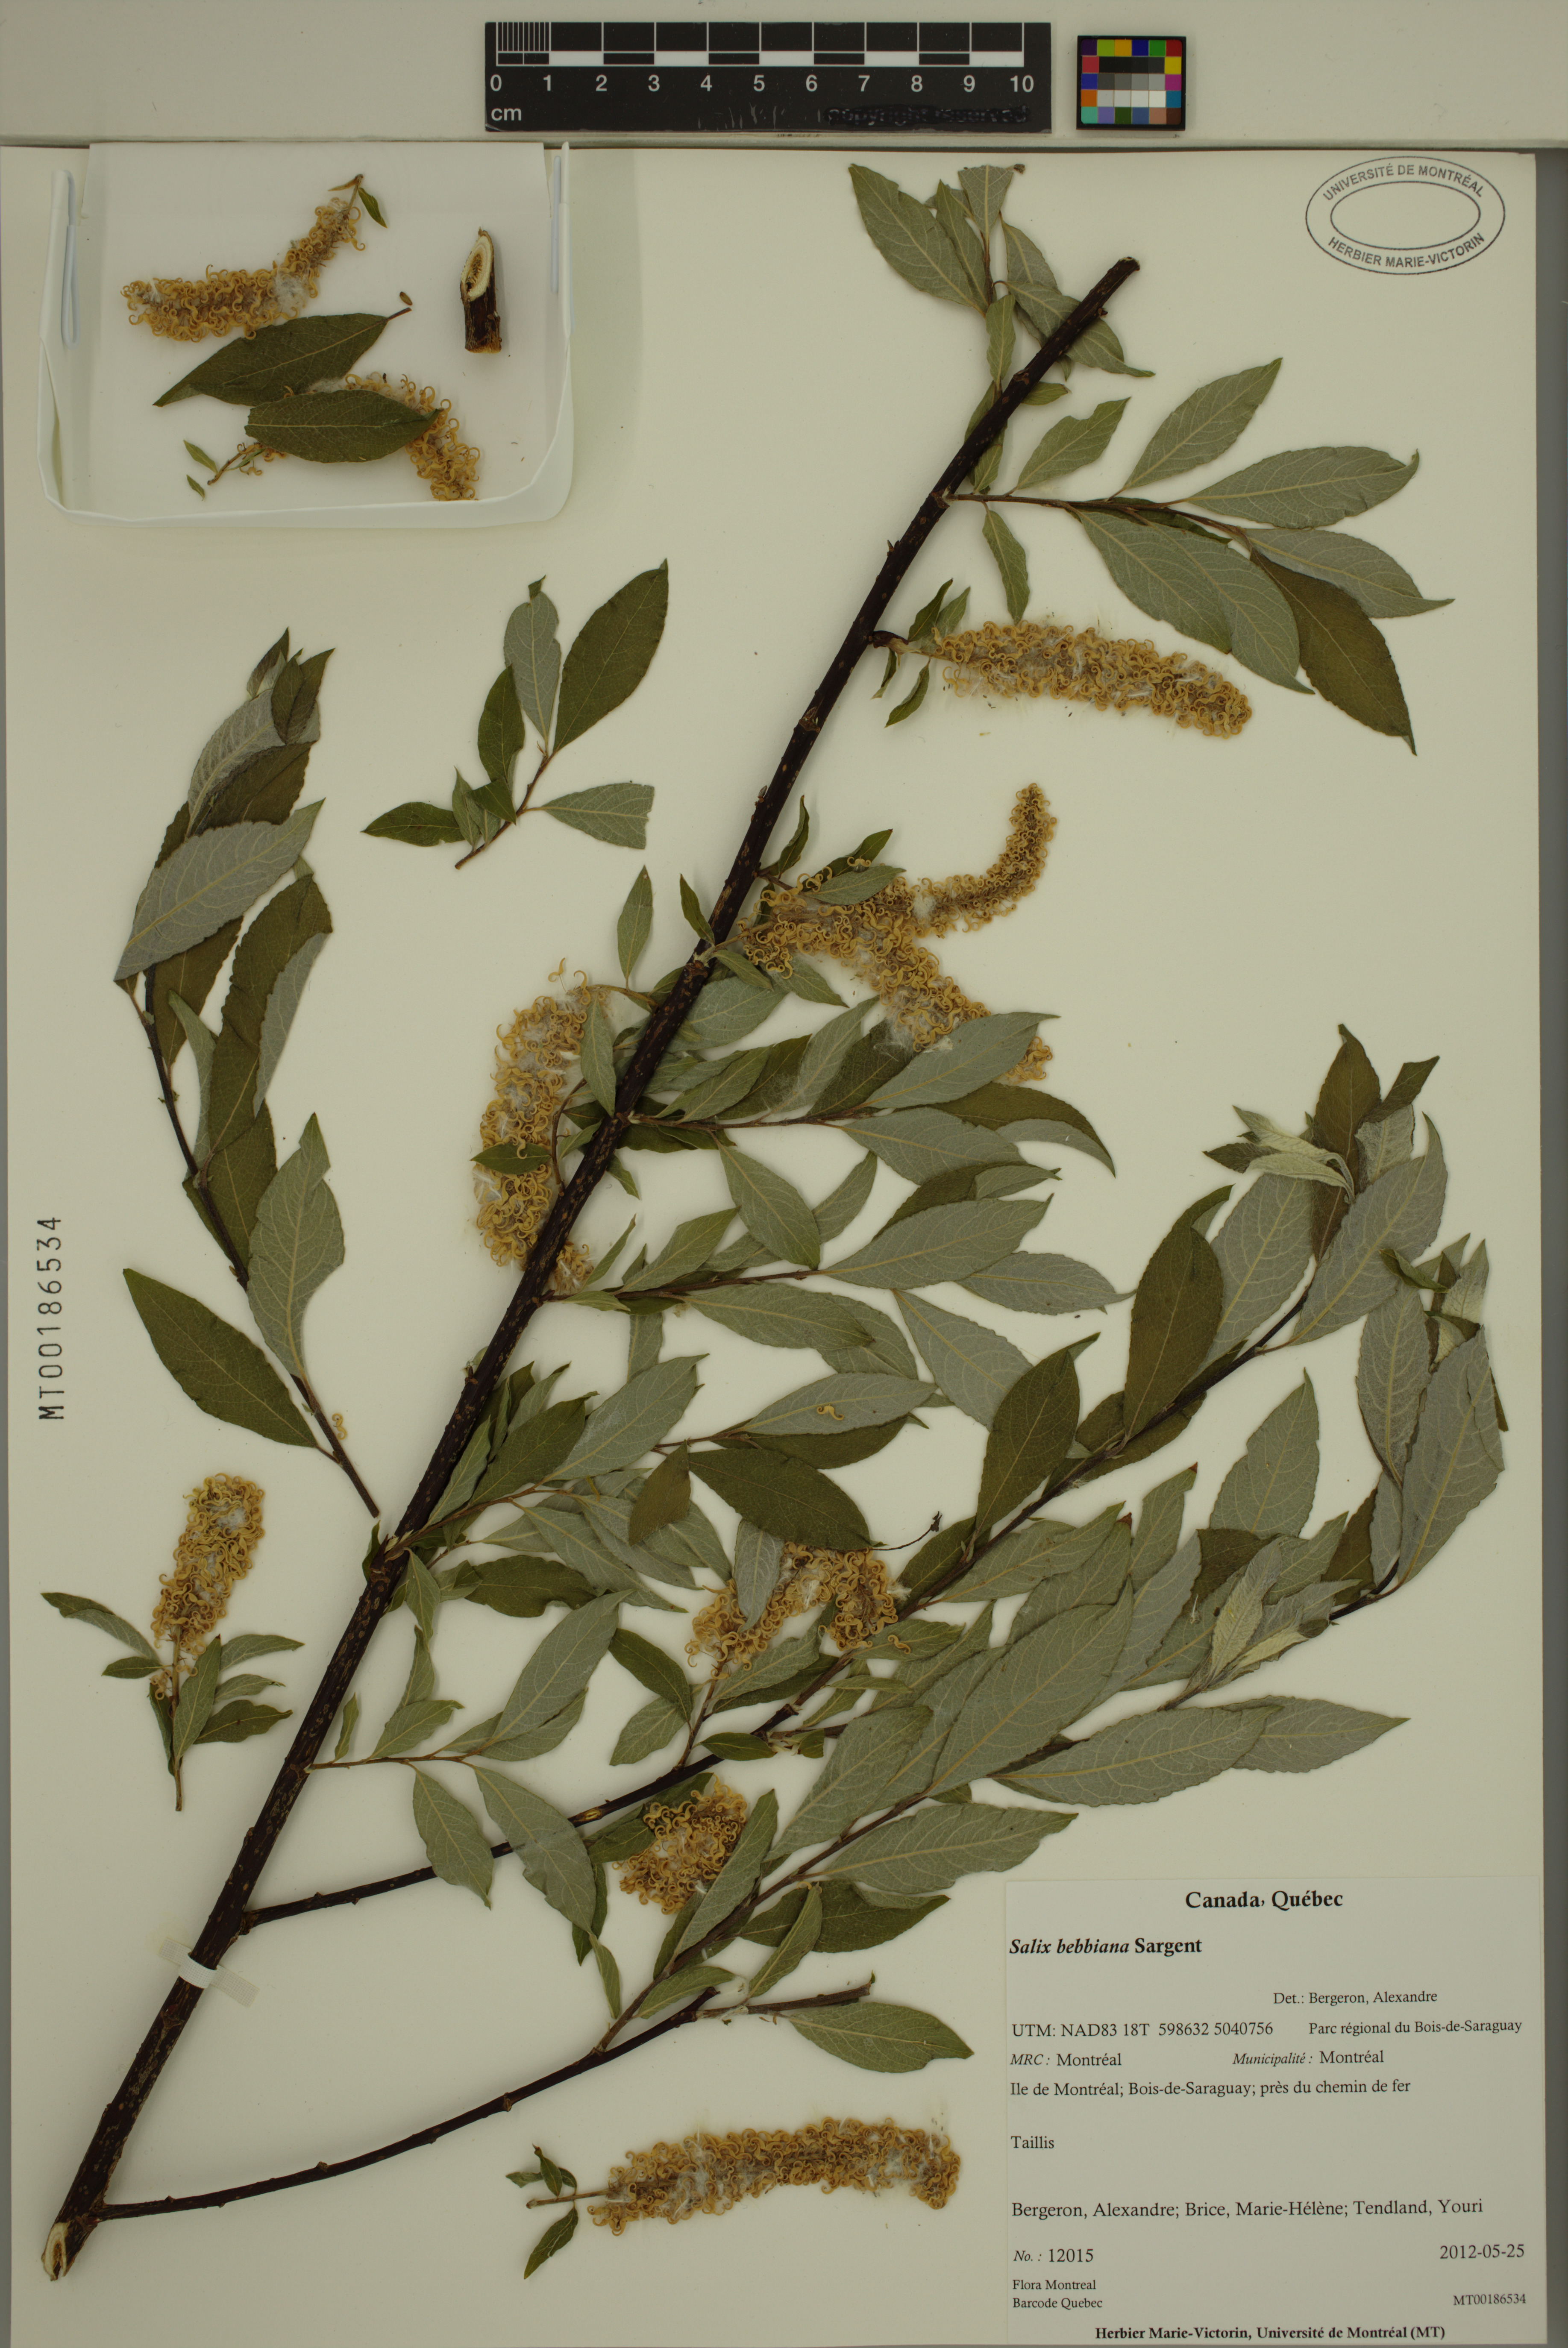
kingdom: Plantae
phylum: Tracheophyta
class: Magnoliopsida
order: Malpighiales
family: Salicaceae
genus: Salix
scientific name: Salix bebbiana
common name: Bebb's willow
